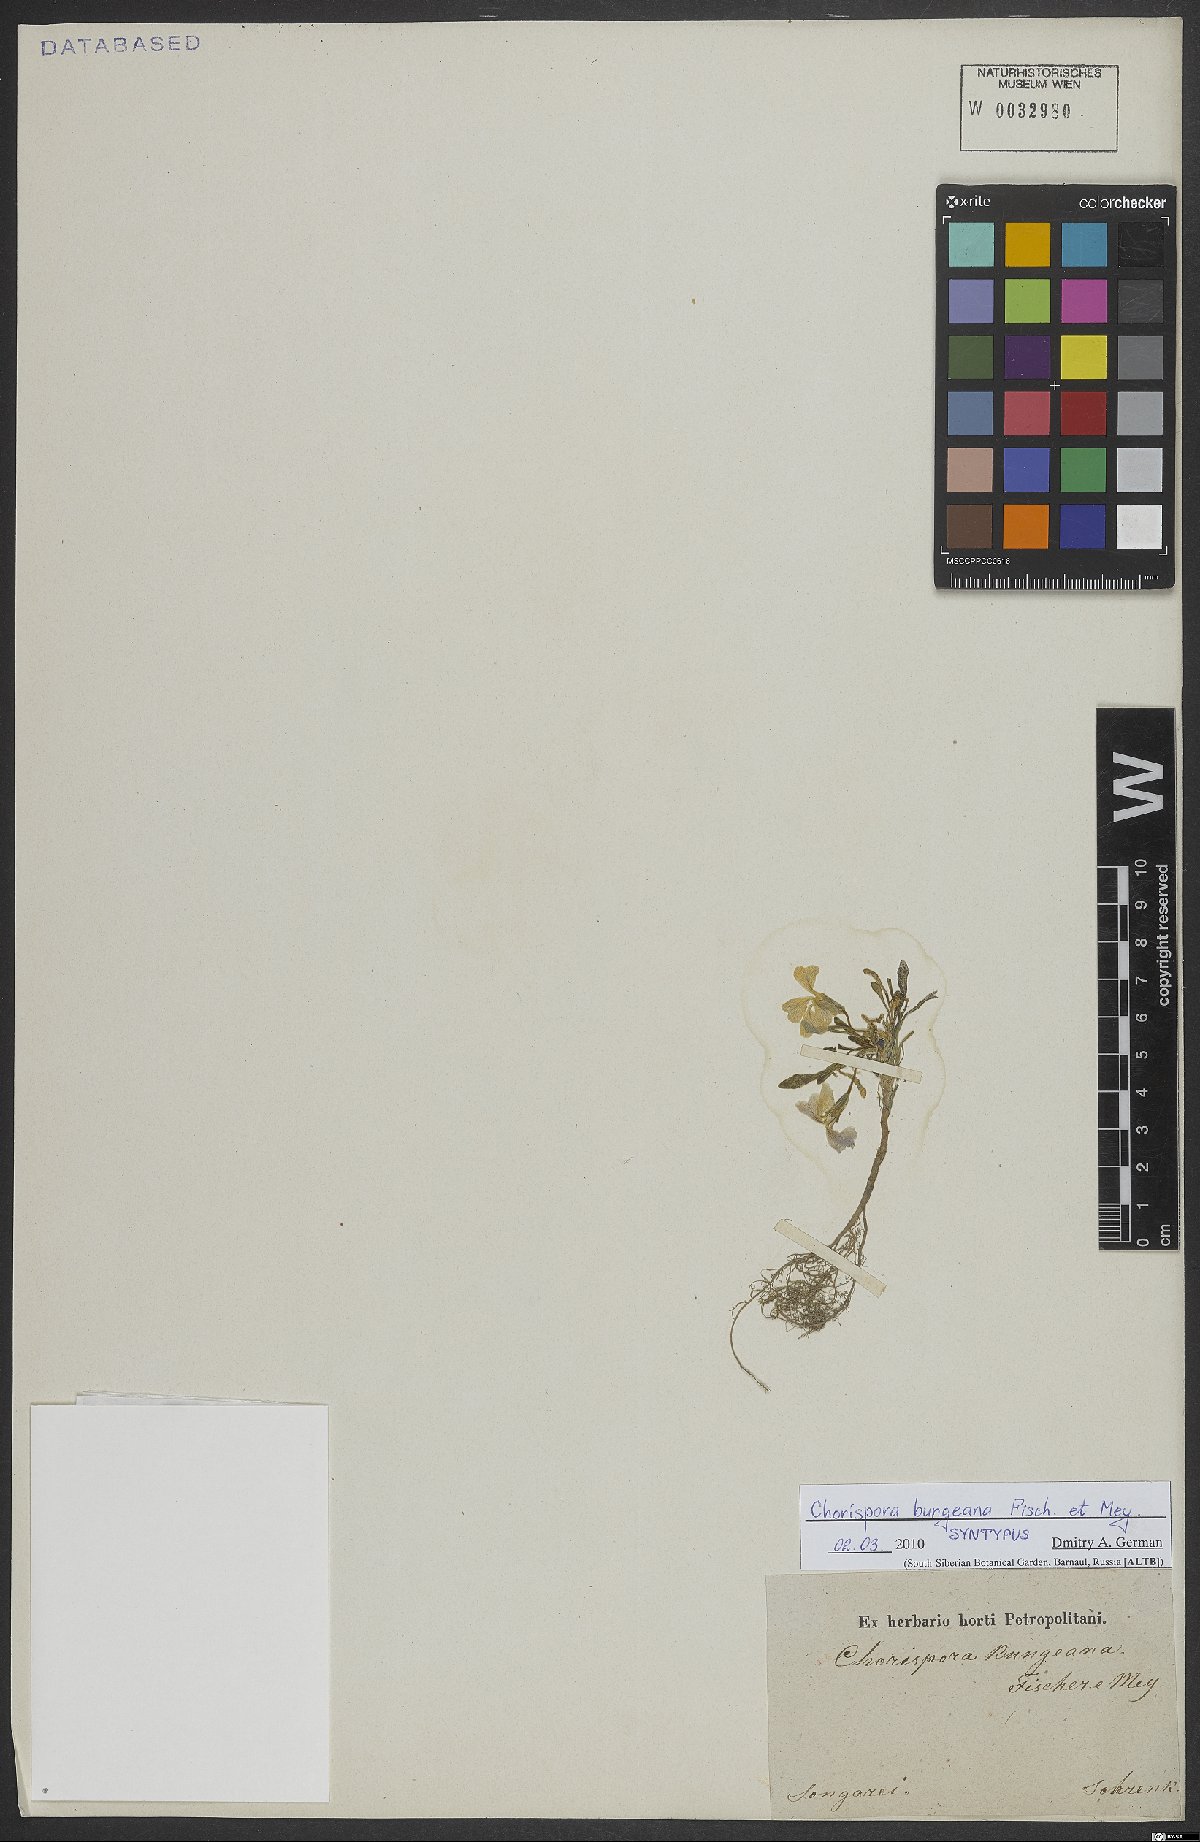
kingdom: Plantae
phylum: Tracheophyta
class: Magnoliopsida
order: Brassicales
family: Brassicaceae
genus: Chorispora
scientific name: Chorispora bungeana
